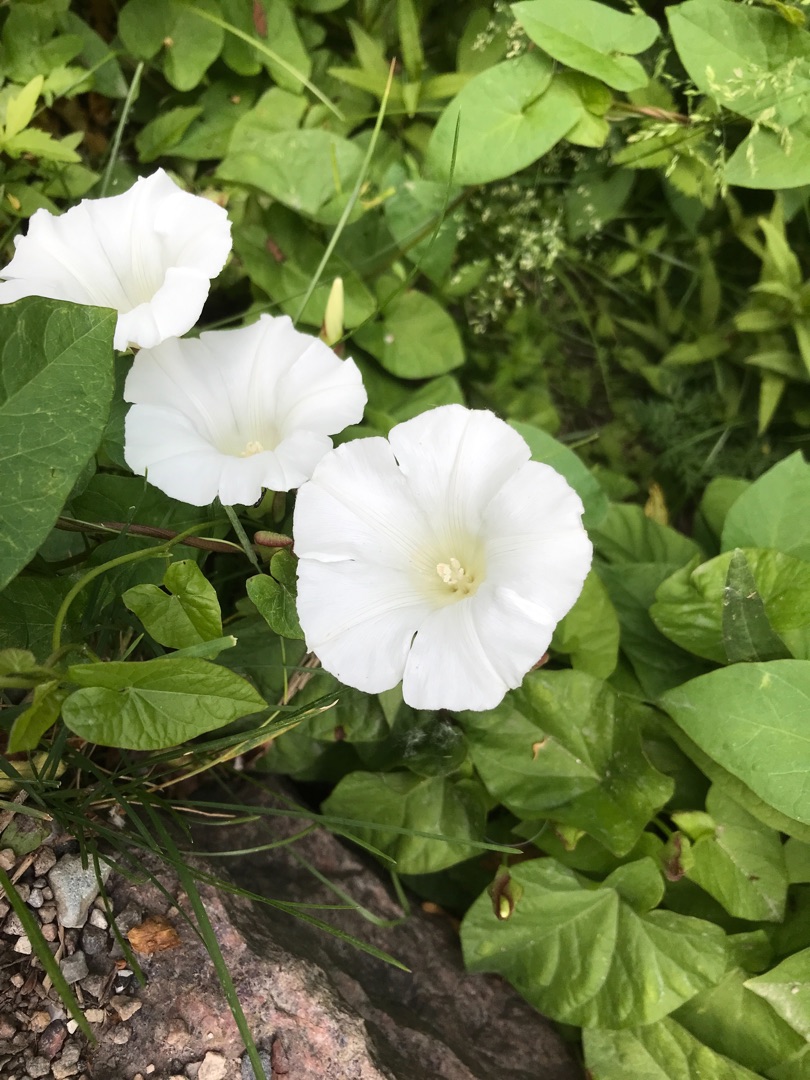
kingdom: Plantae
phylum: Tracheophyta
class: Magnoliopsida
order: Solanales
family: Convolvulaceae
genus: Calystegia
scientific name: Calystegia sepium
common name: Gærde-snerle
